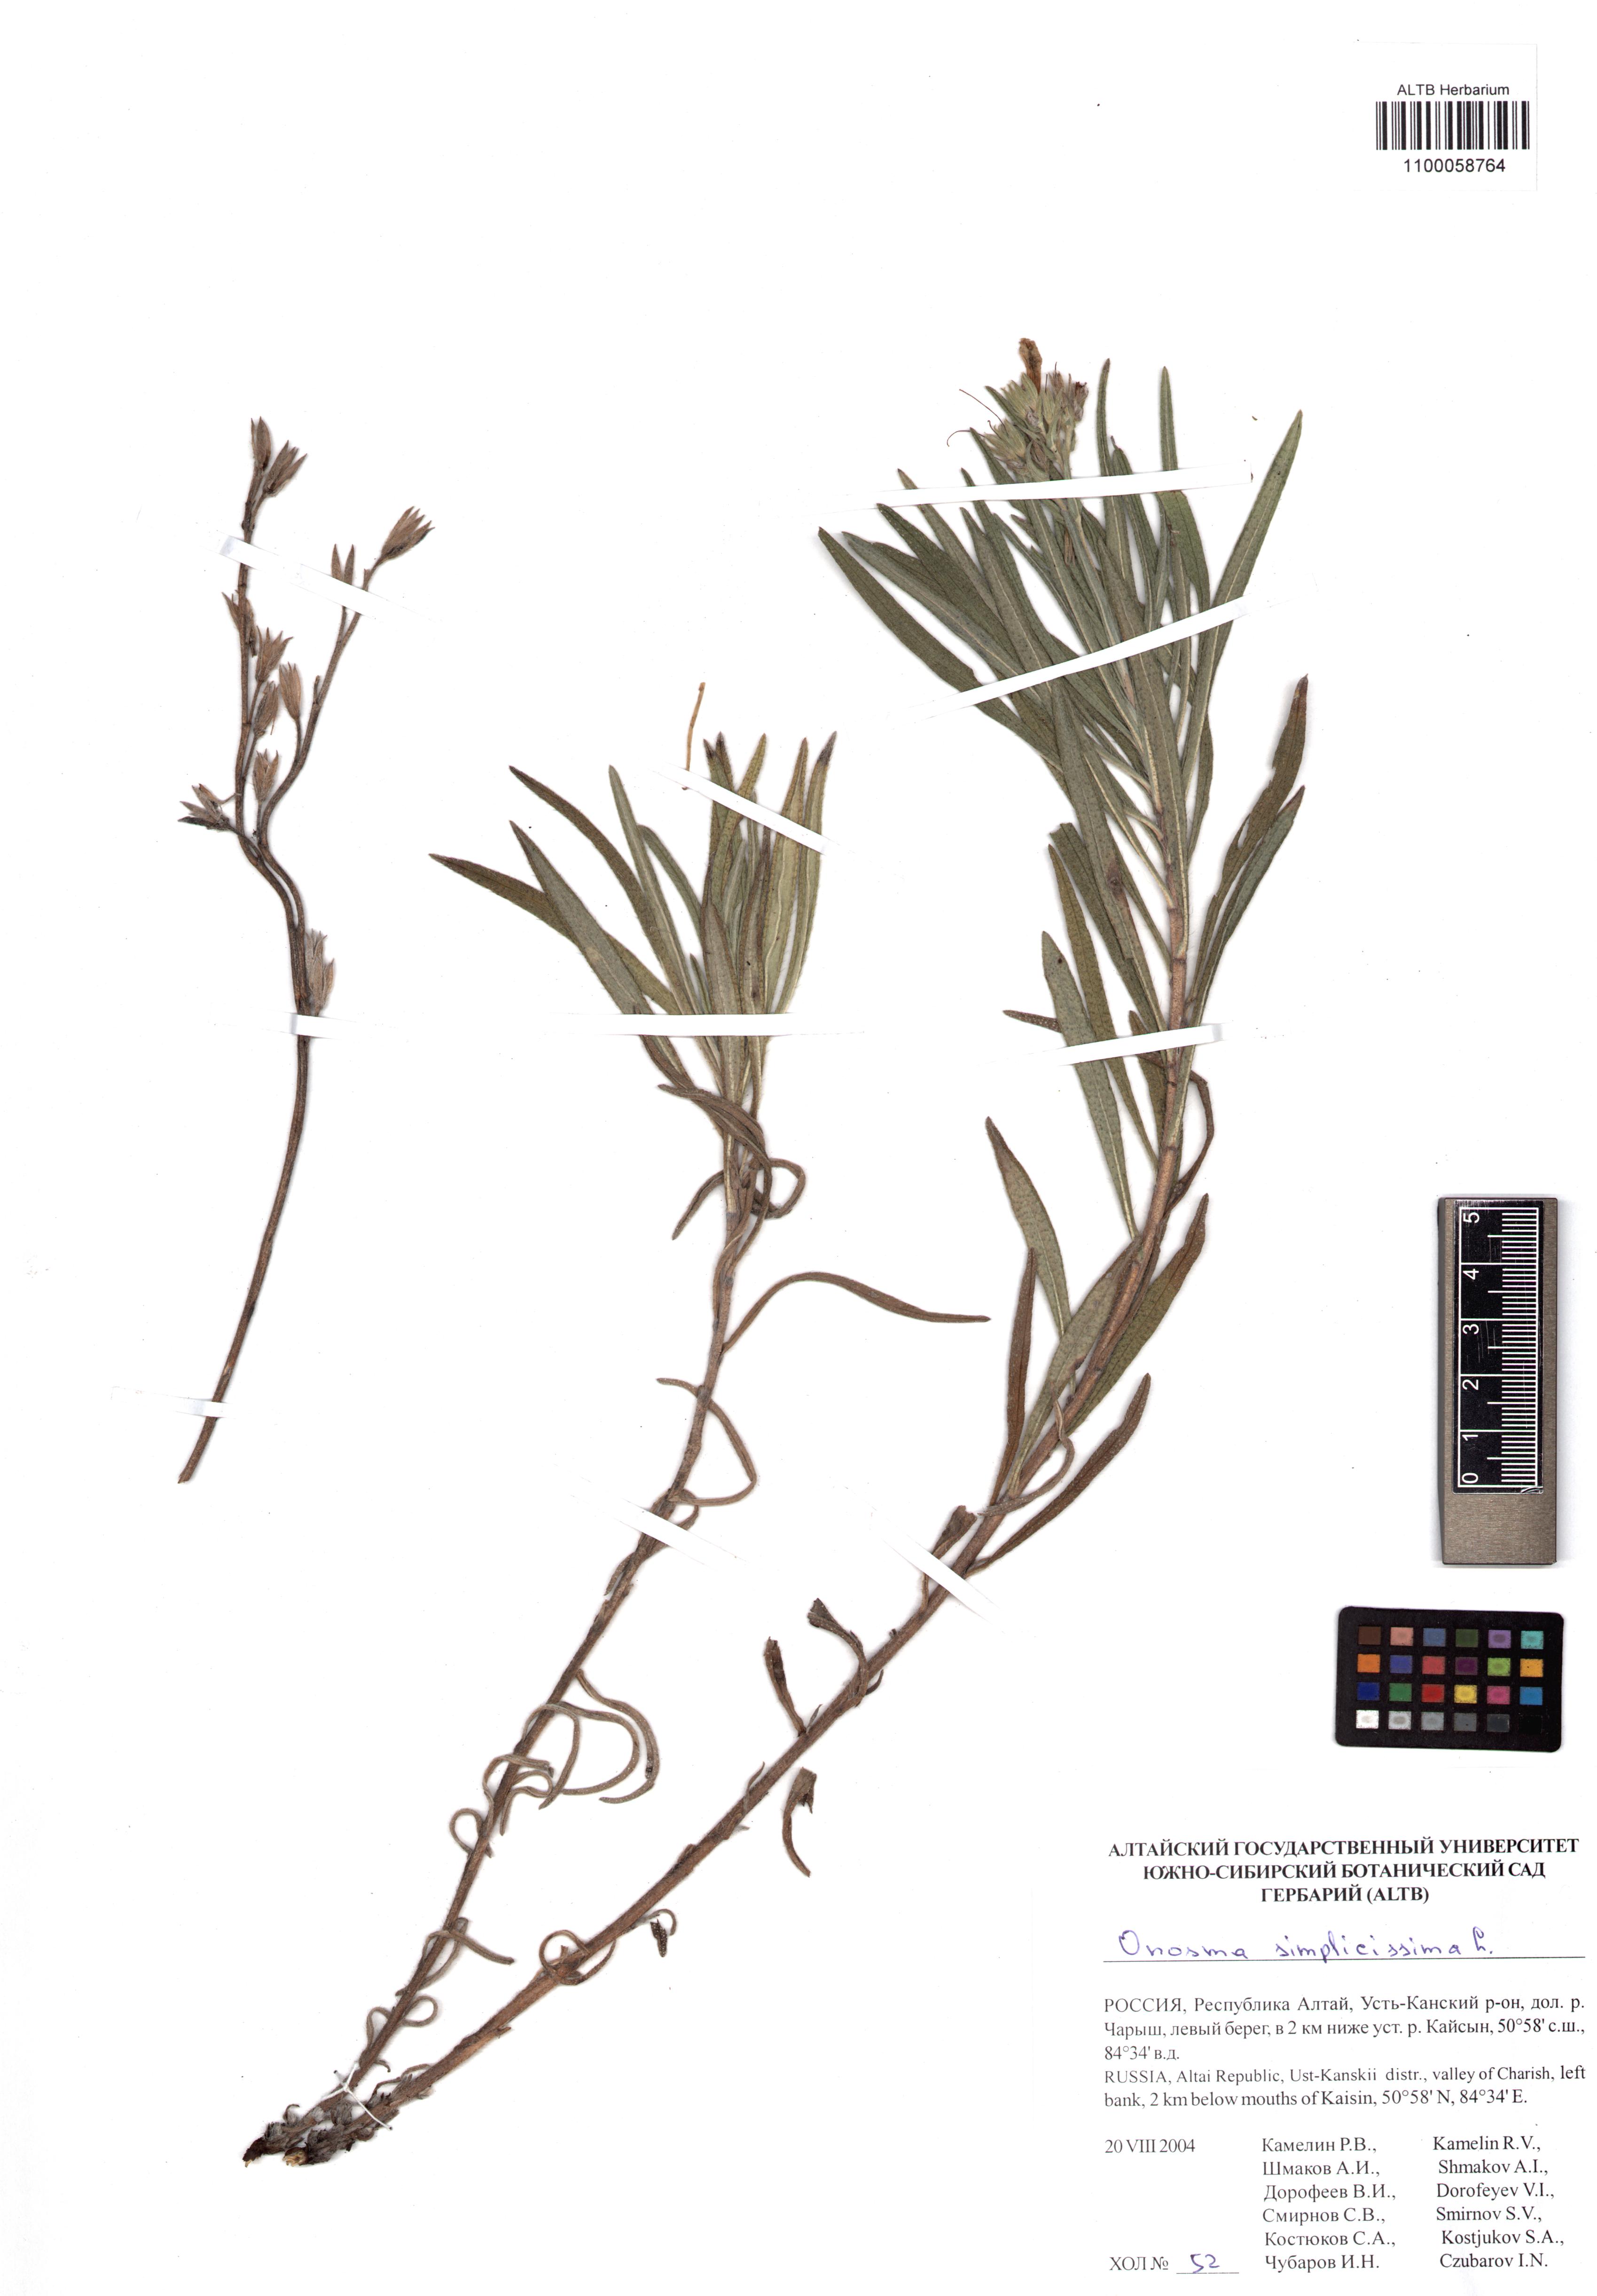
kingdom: Plantae
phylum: Tracheophyta
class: Magnoliopsida
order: Boraginales
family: Boraginaceae
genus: Onosma
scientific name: Onosma simplicissima
